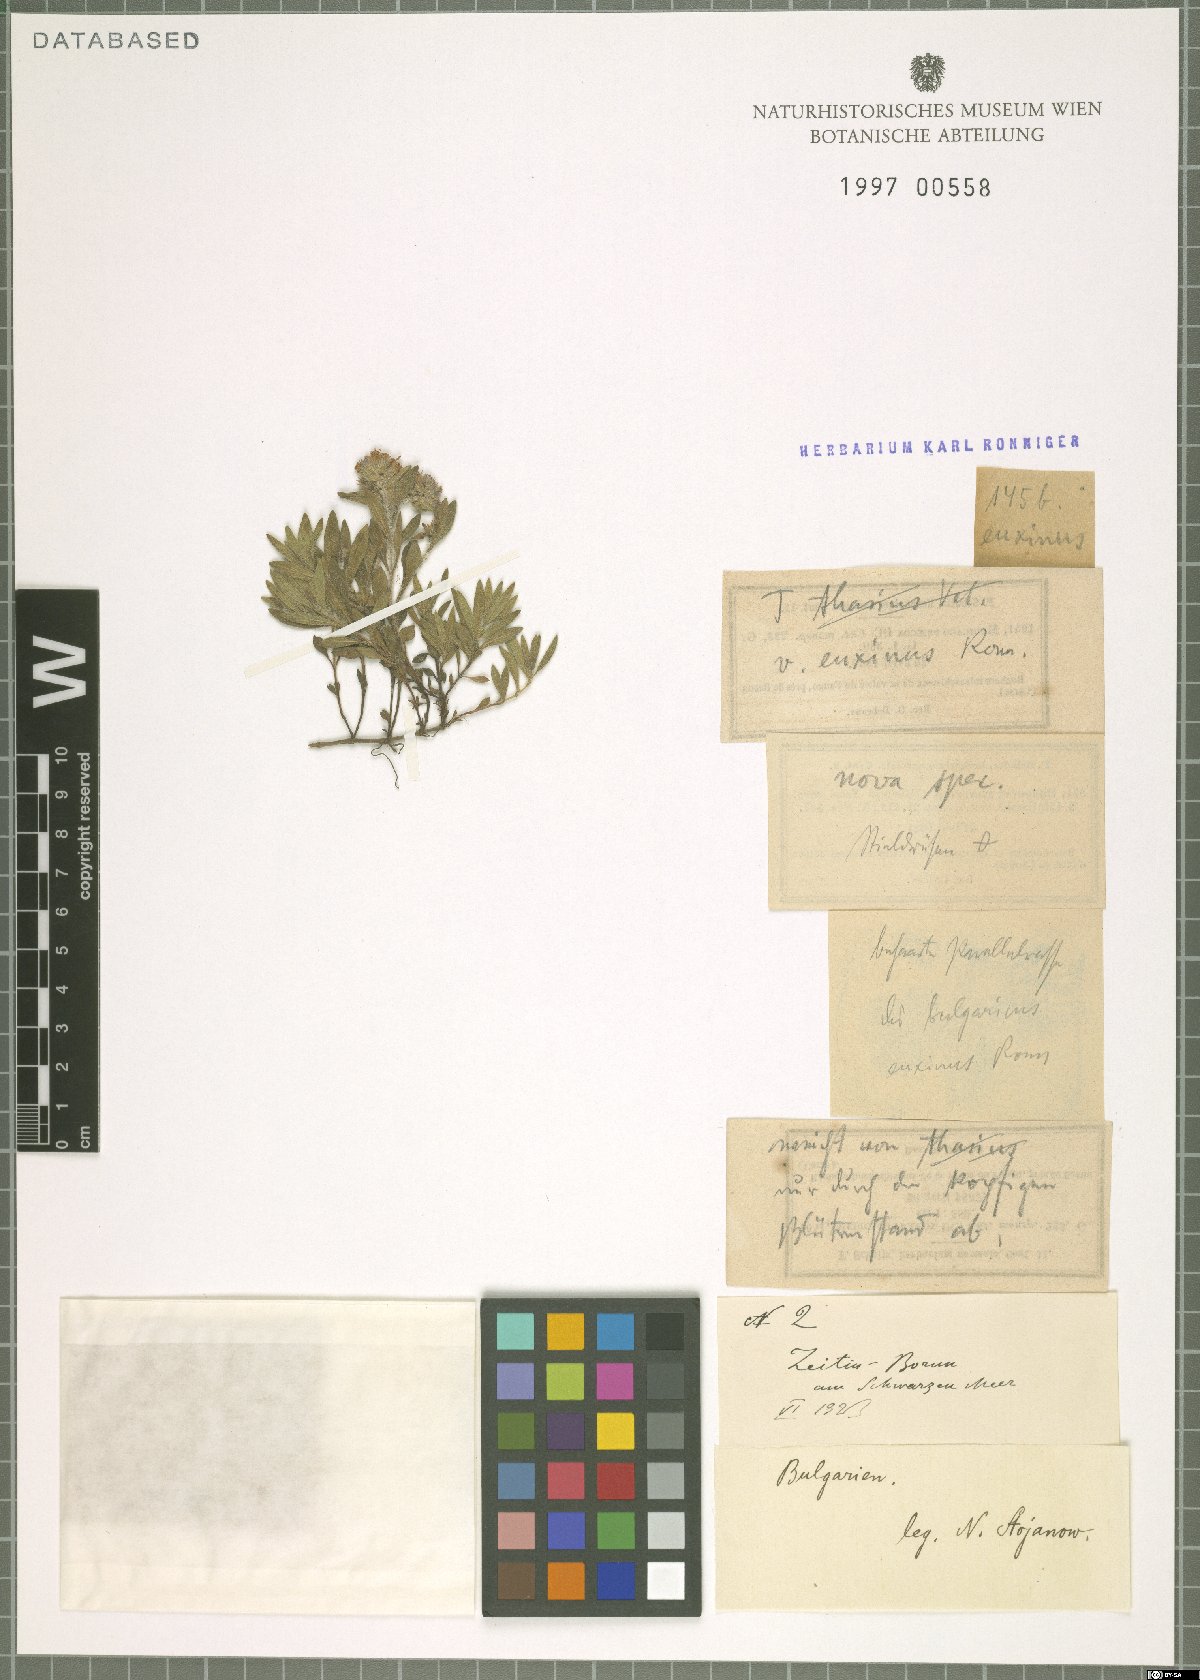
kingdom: Plantae
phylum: Tracheophyta
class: Magnoliopsida
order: Lamiales
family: Lamiaceae
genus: Thymus
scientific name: Thymus kosteleckyanus
